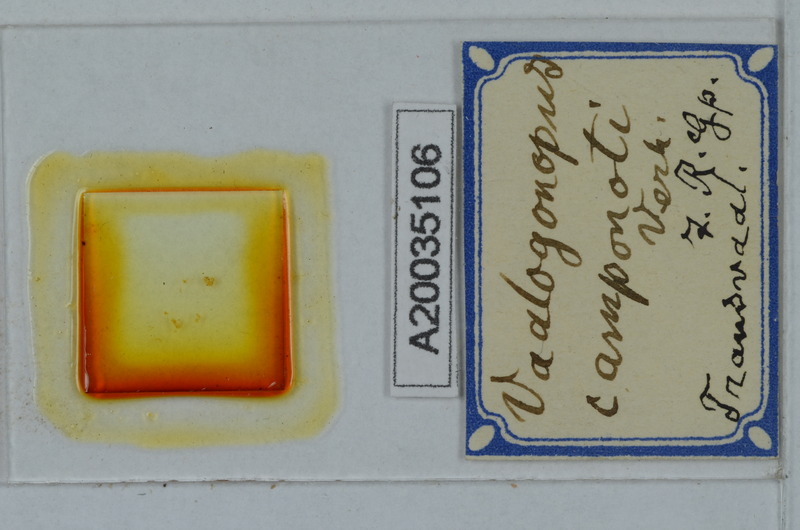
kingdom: Animalia
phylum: Arthropoda
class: Diplopoda
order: Polydesmida
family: Vaalogonopodidae
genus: Vaalogonopus
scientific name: Vaalogonopus camponoti
